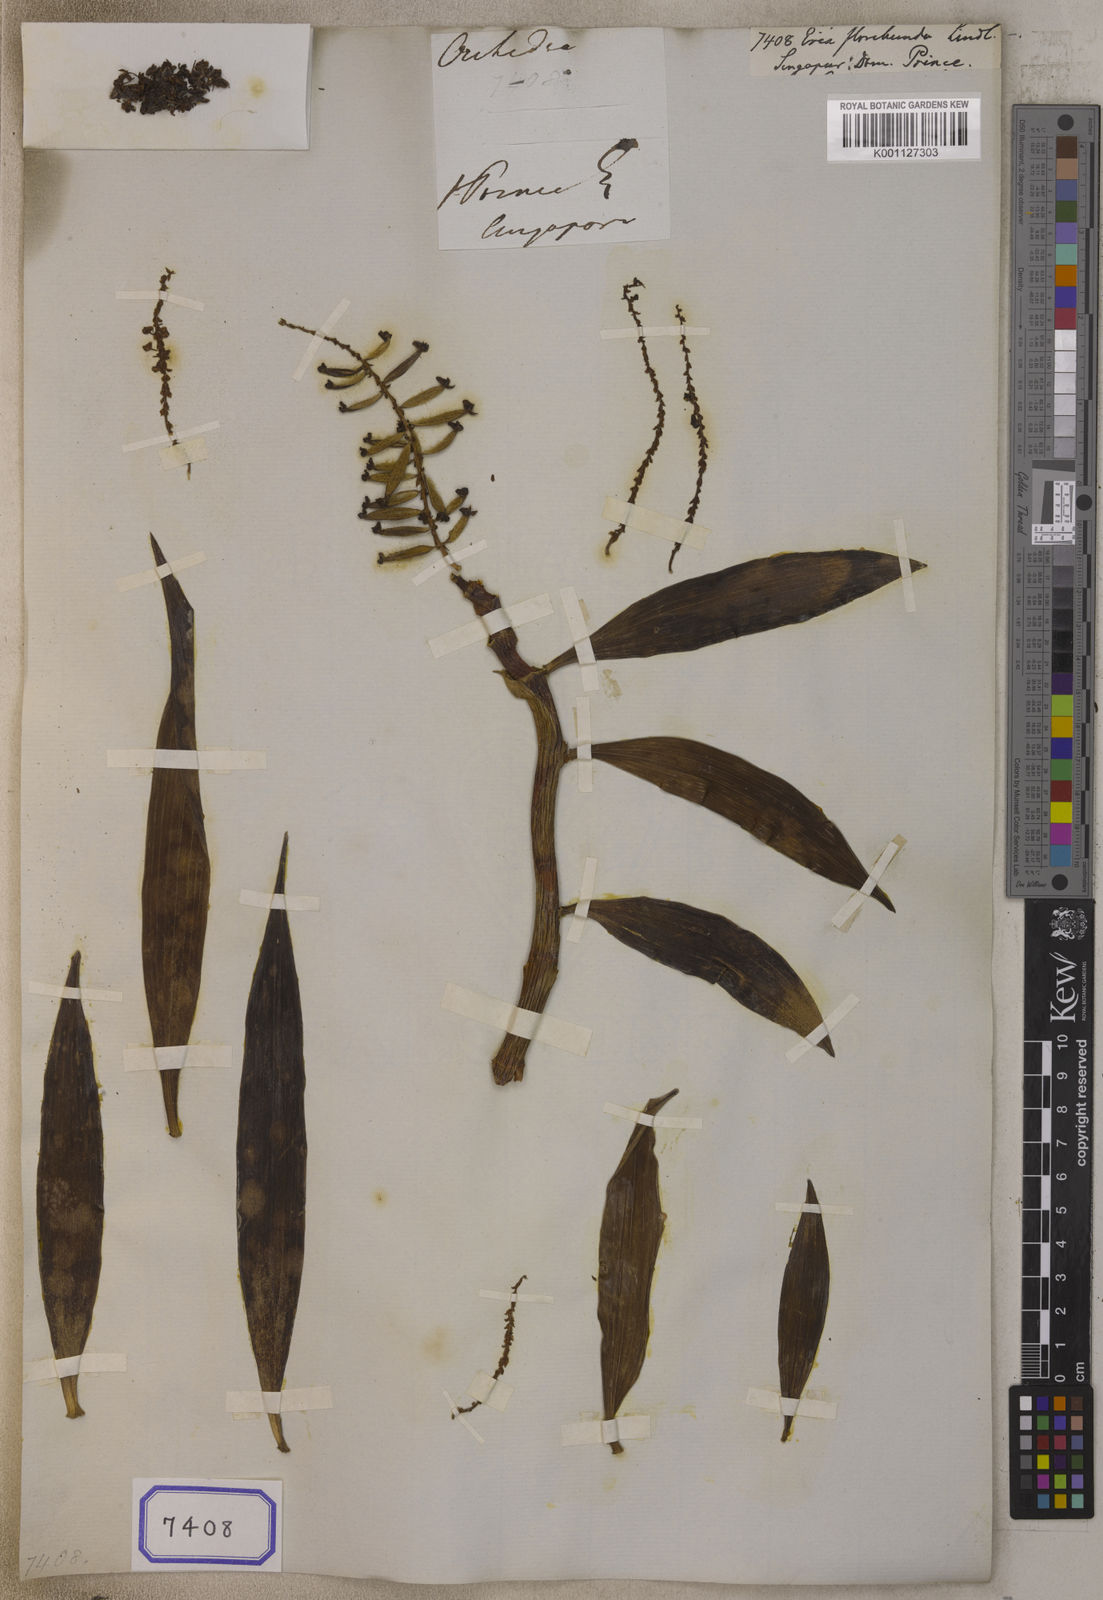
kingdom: Plantae
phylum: Tracheophyta
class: Liliopsida
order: Asparagales
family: Orchidaceae
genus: Pinalia
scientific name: Pinalia floribunda
